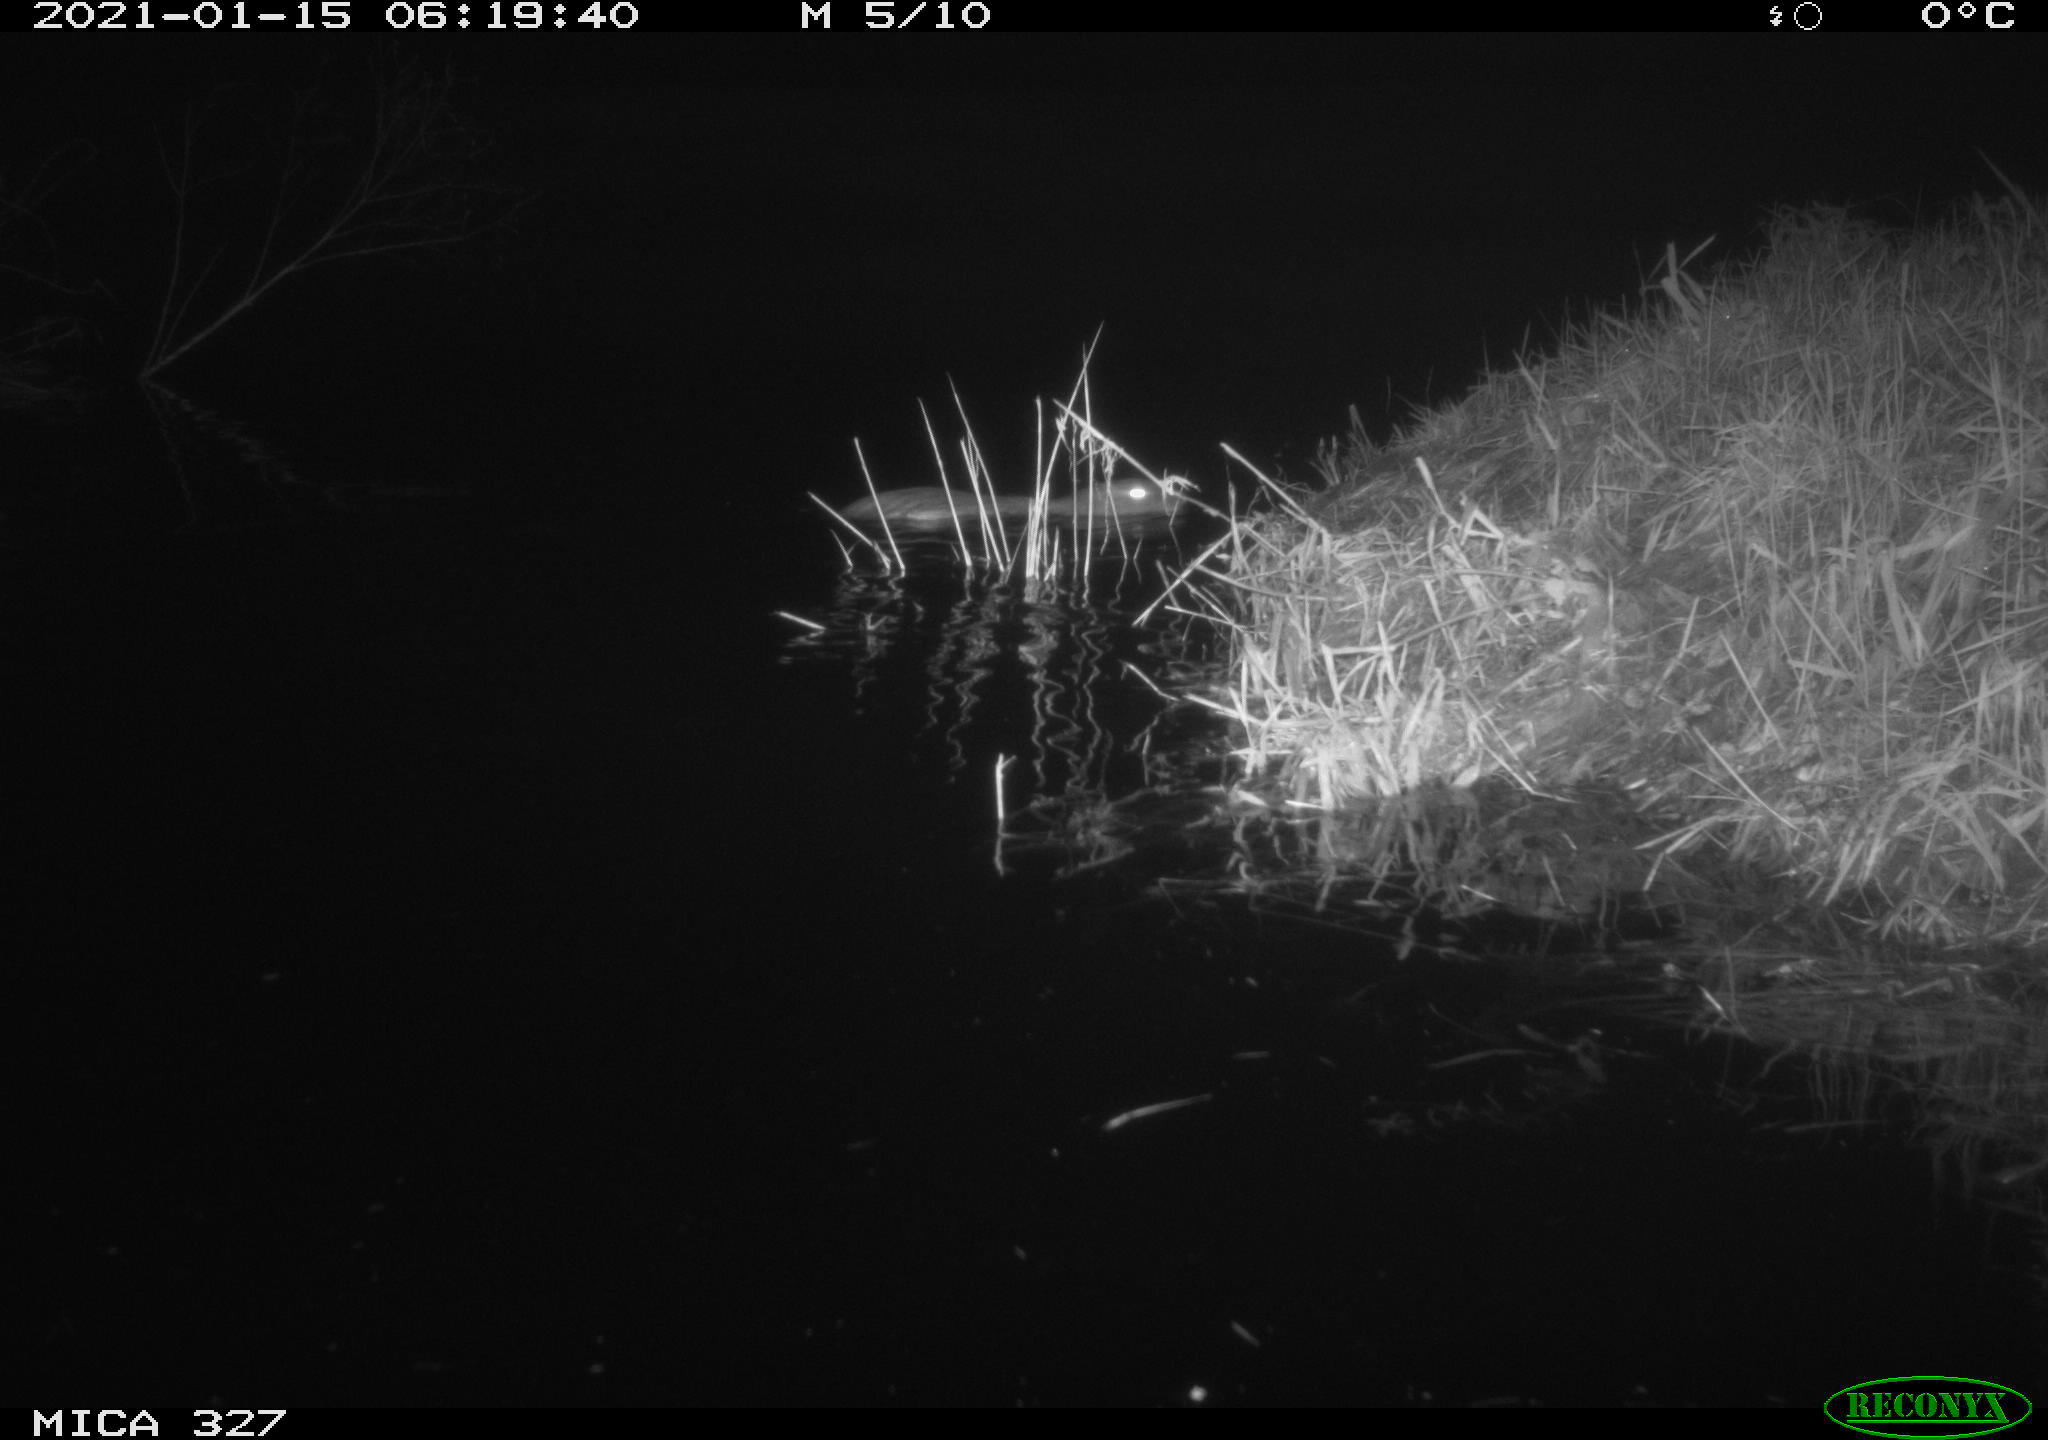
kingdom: Animalia
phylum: Chordata
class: Mammalia
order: Rodentia
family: Myocastoridae
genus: Myocastor
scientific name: Myocastor coypus
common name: Coypu
